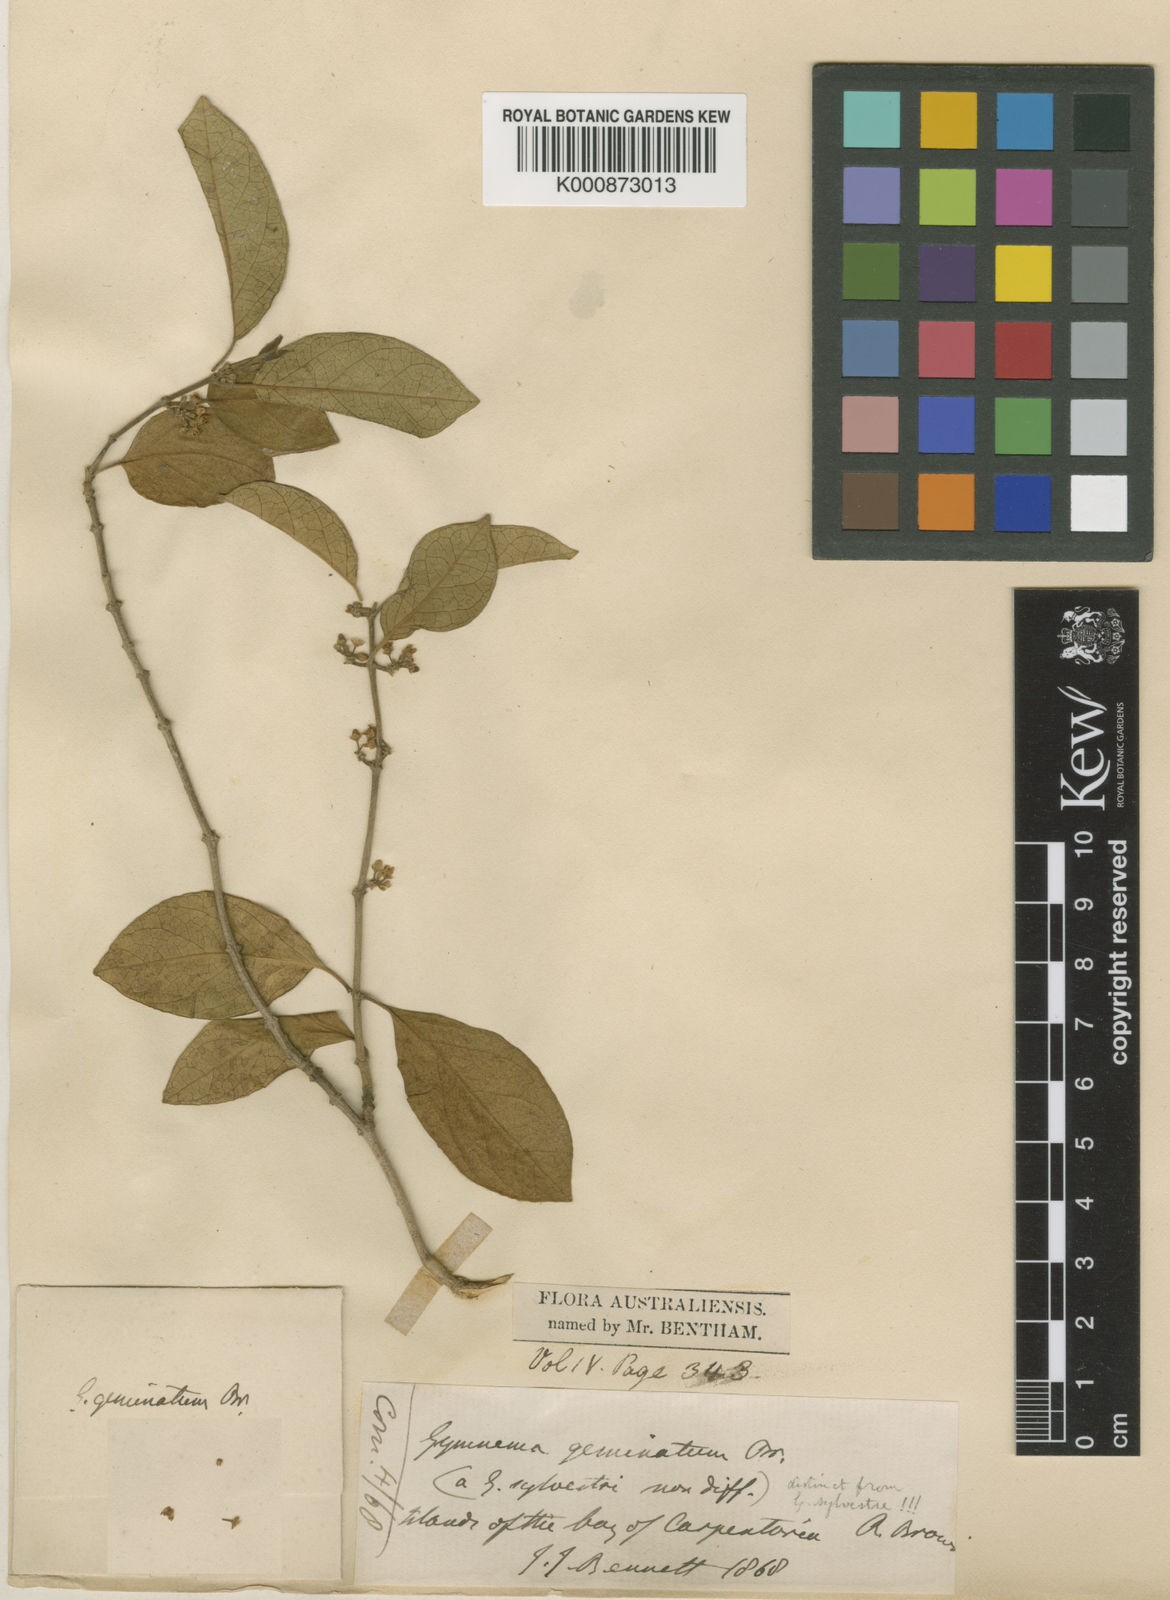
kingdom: Plantae
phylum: Tracheophyta
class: Magnoliopsida
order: Gentianales
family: Apocynaceae
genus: Gymnema
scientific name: Gymnema geminatum
